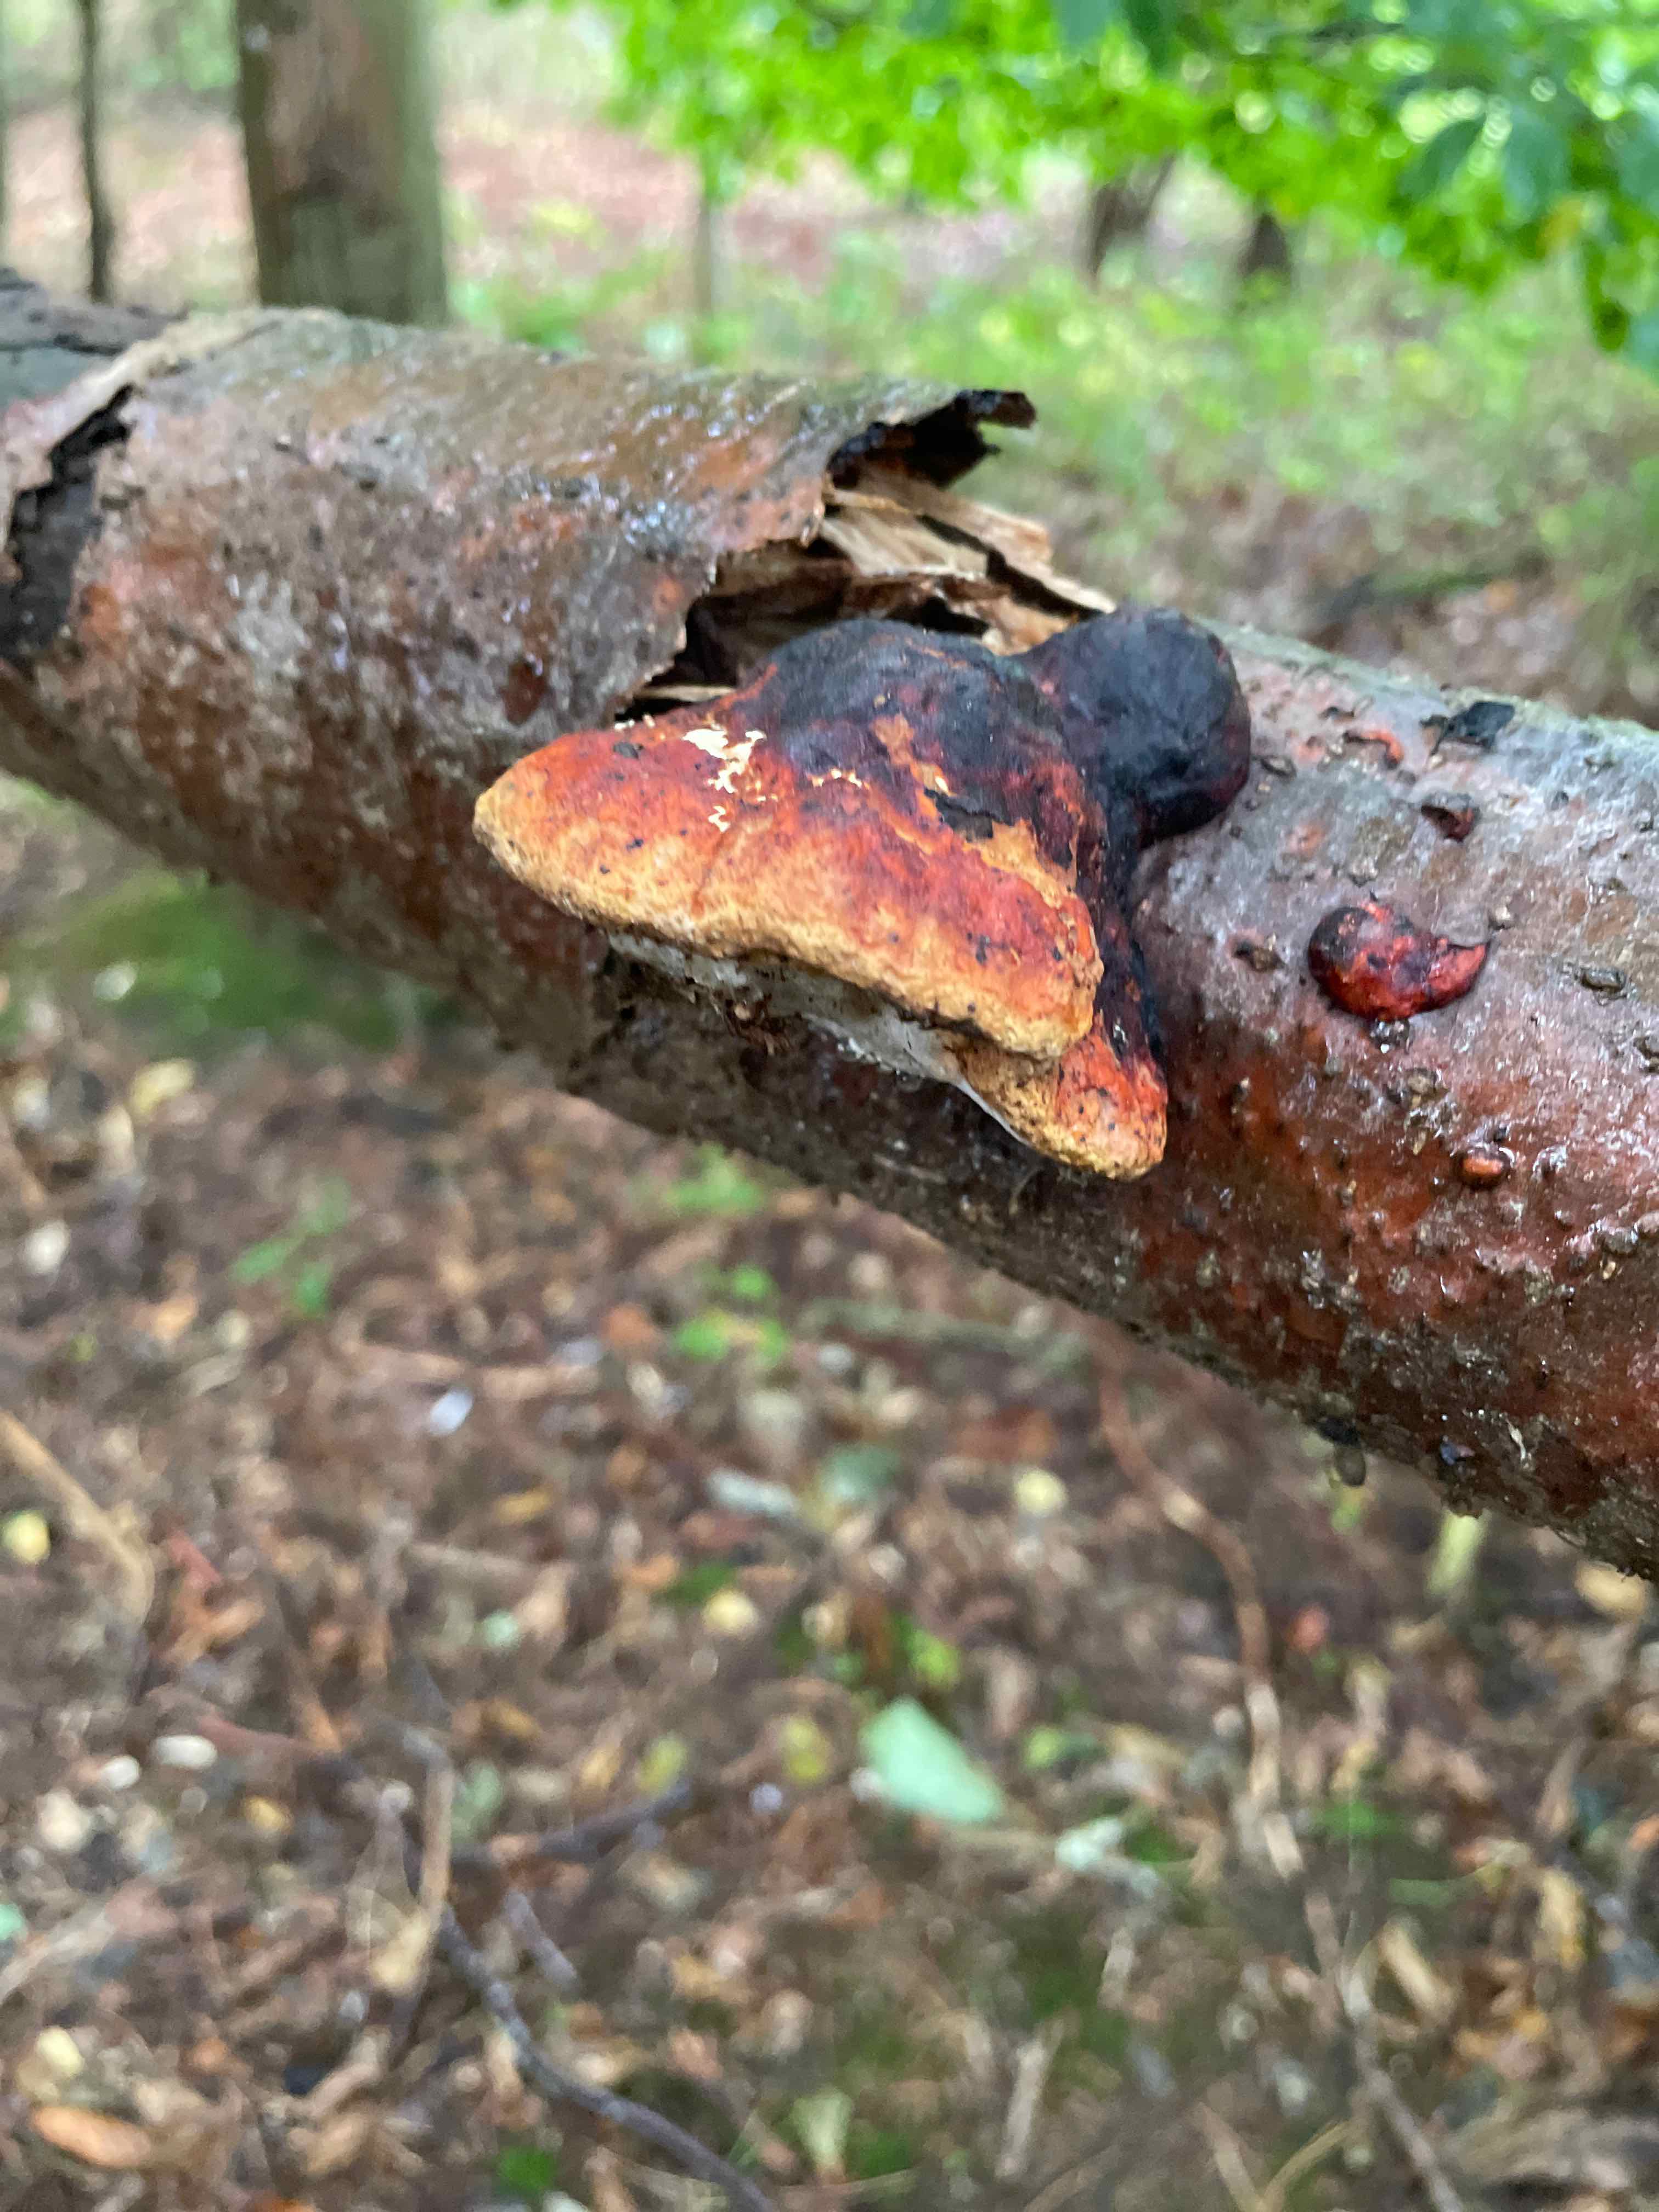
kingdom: Fungi
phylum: Basidiomycota
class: Agaricomycetes
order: Polyporales
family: Fomitopsidaceae
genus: Fomitopsis
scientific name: Fomitopsis pinicola
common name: randbæltet hovporesvamp
